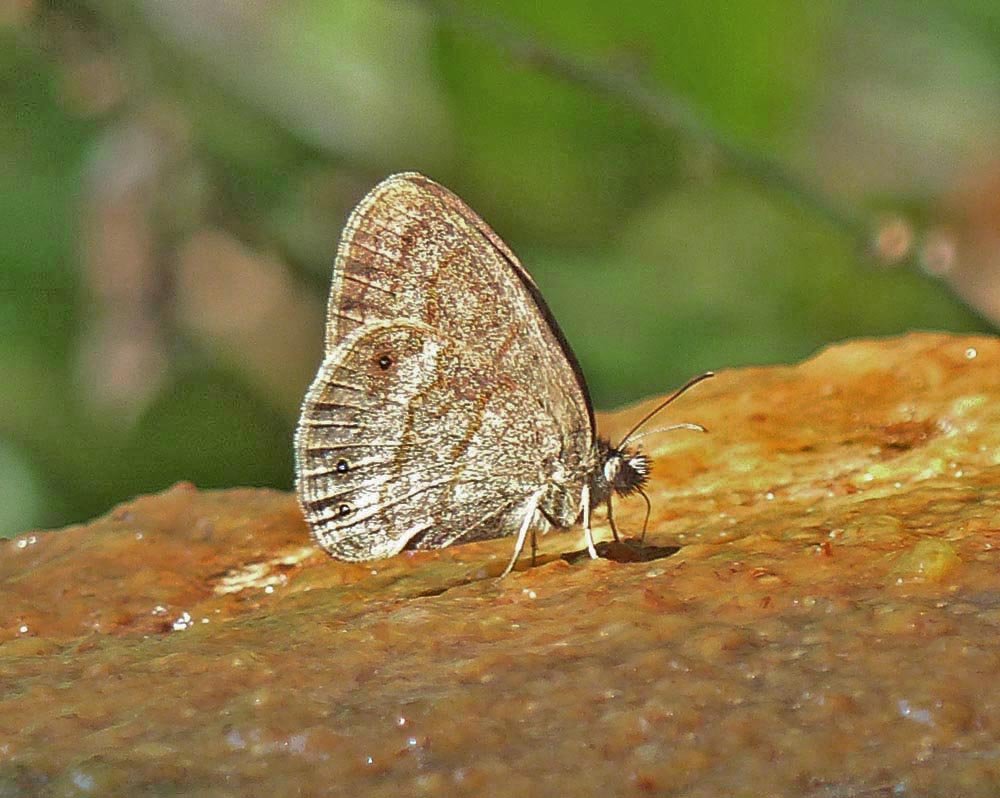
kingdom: Animalia
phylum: Arthropoda
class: Insecta
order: Lepidoptera
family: Nymphalidae
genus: Hermeuptychia
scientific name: Hermeuptychia hermybius
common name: South Texas Satyr
